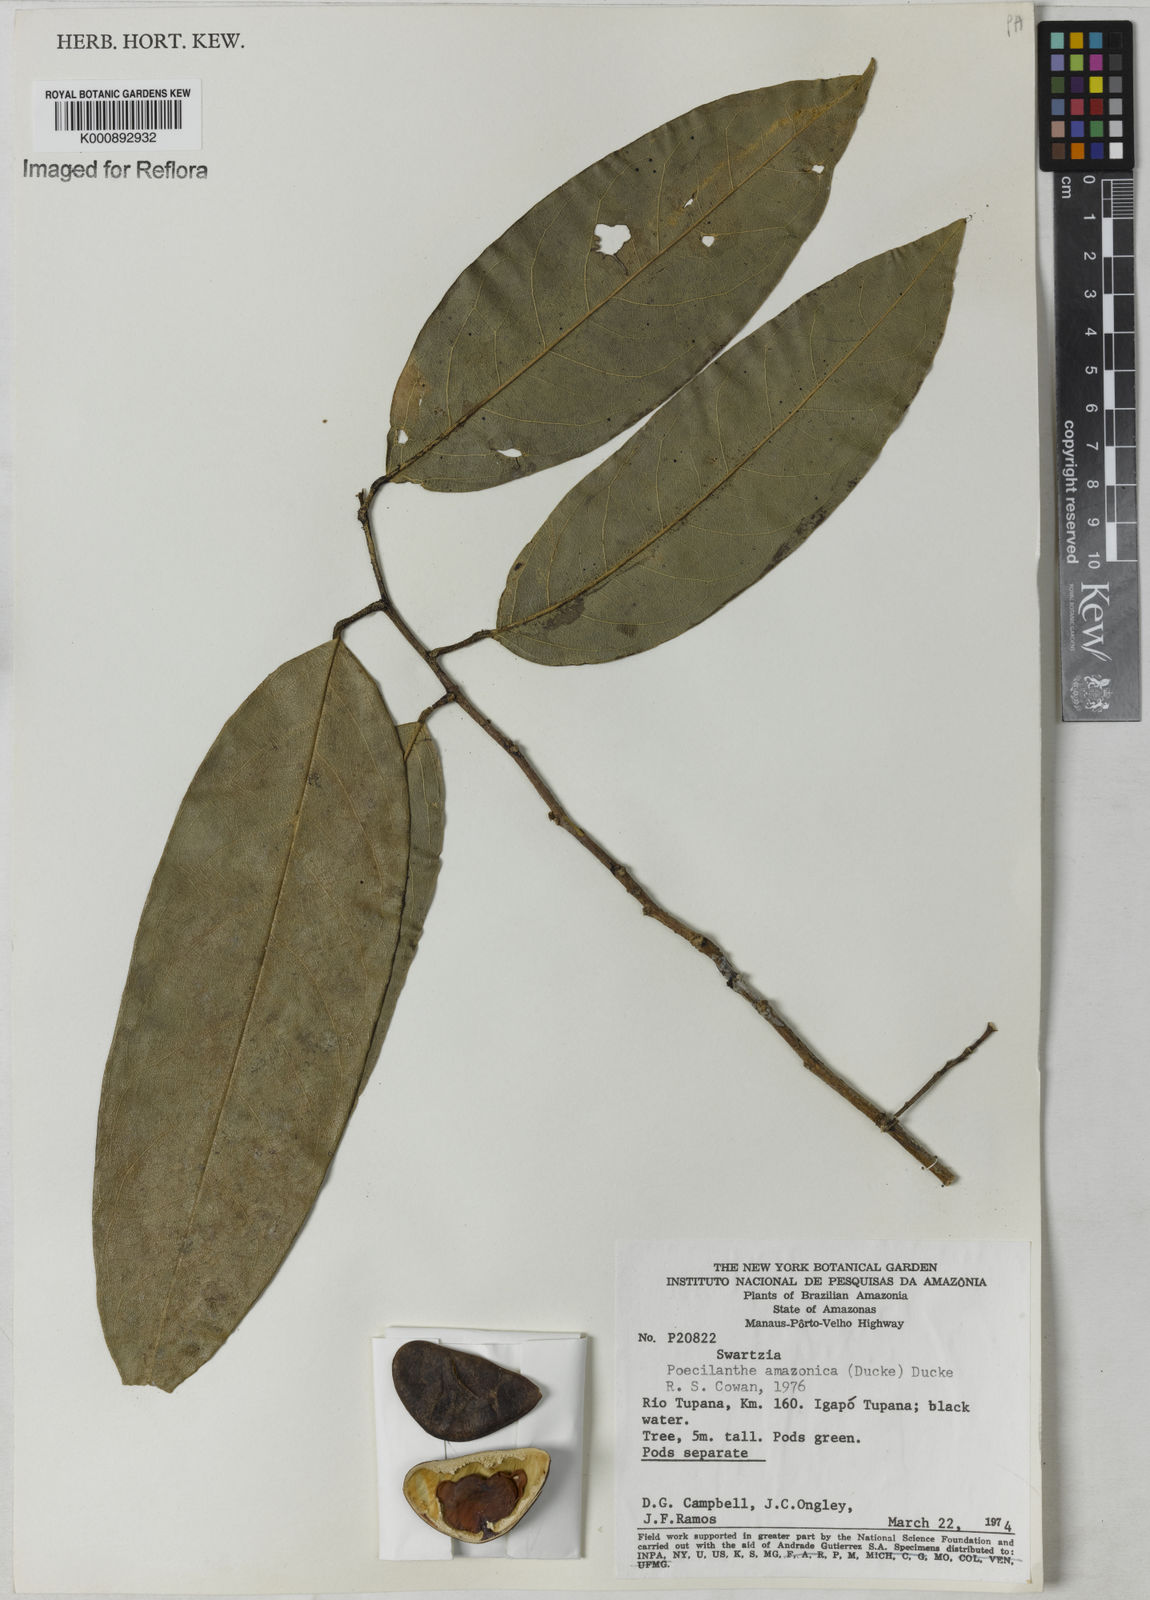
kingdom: Plantae
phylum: Tracheophyta
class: Magnoliopsida
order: Fabales
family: Fabaceae
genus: Limadendron
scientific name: Limadendron amazonicum
